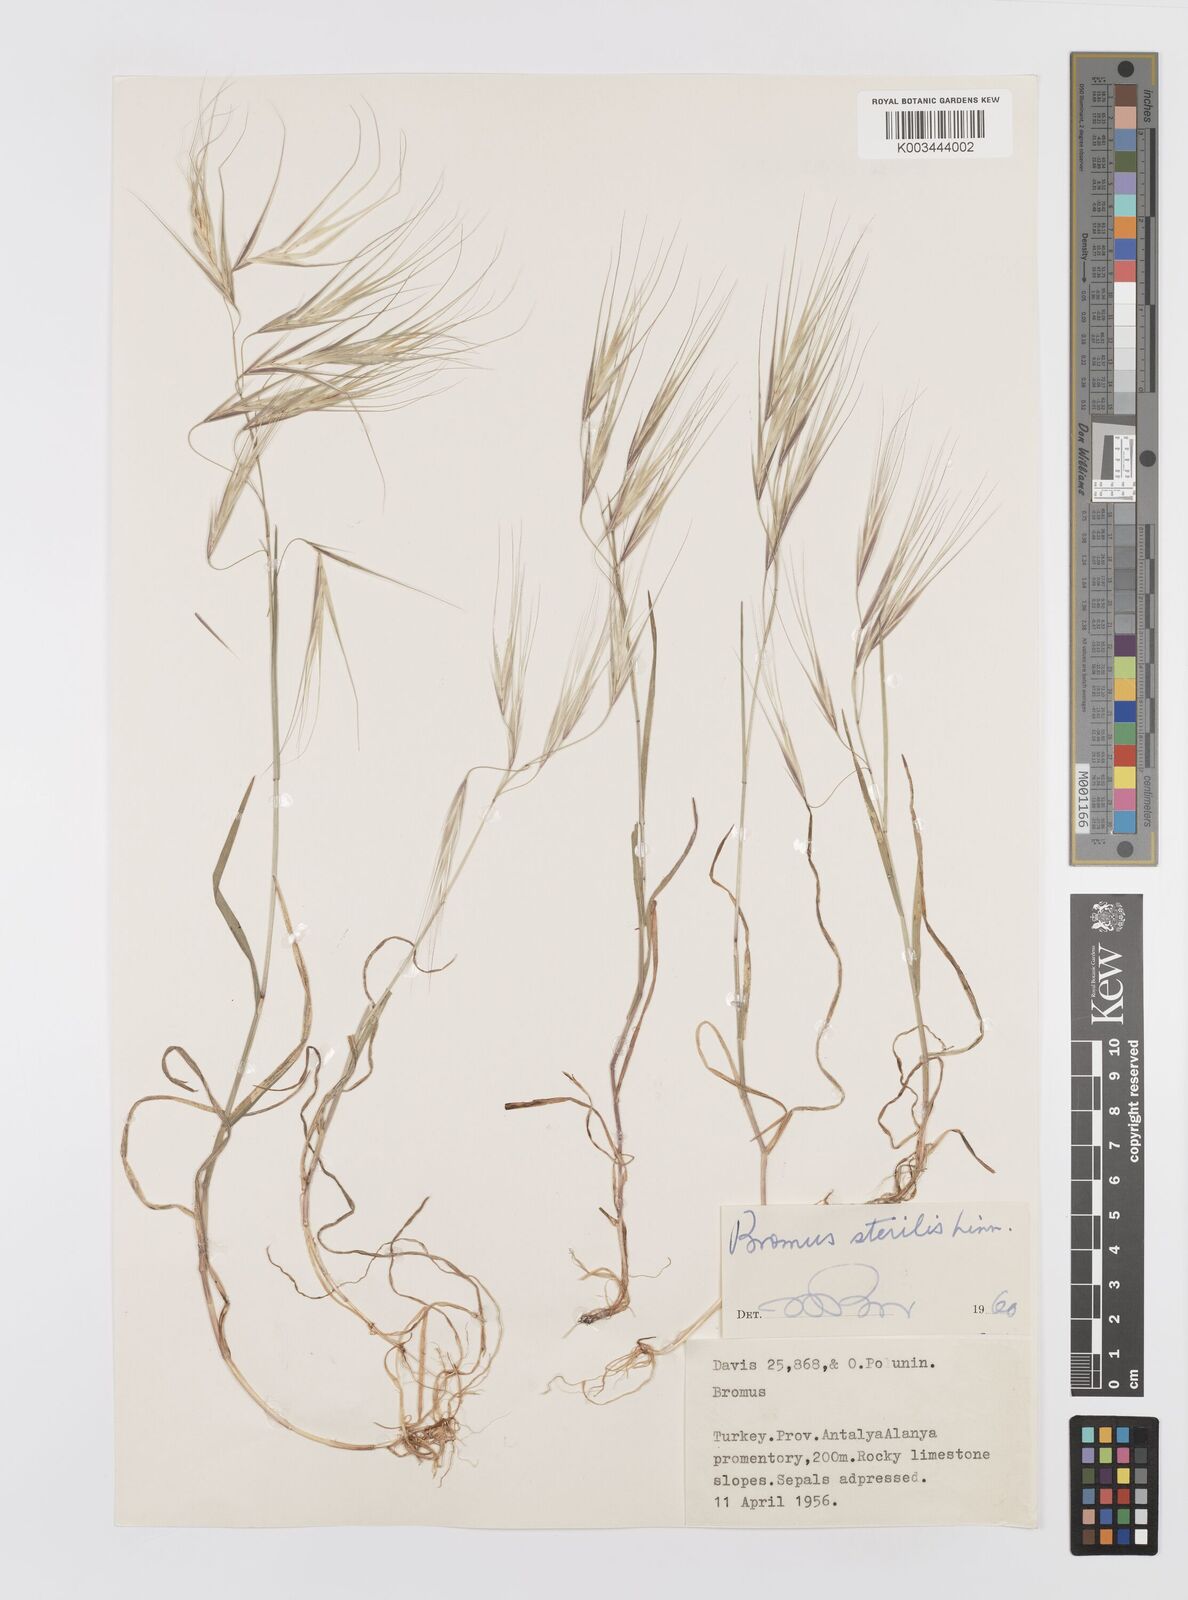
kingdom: Plantae
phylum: Tracheophyta
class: Liliopsida
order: Poales
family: Poaceae
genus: Bromus
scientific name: Bromus sterilis
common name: Poverty brome
